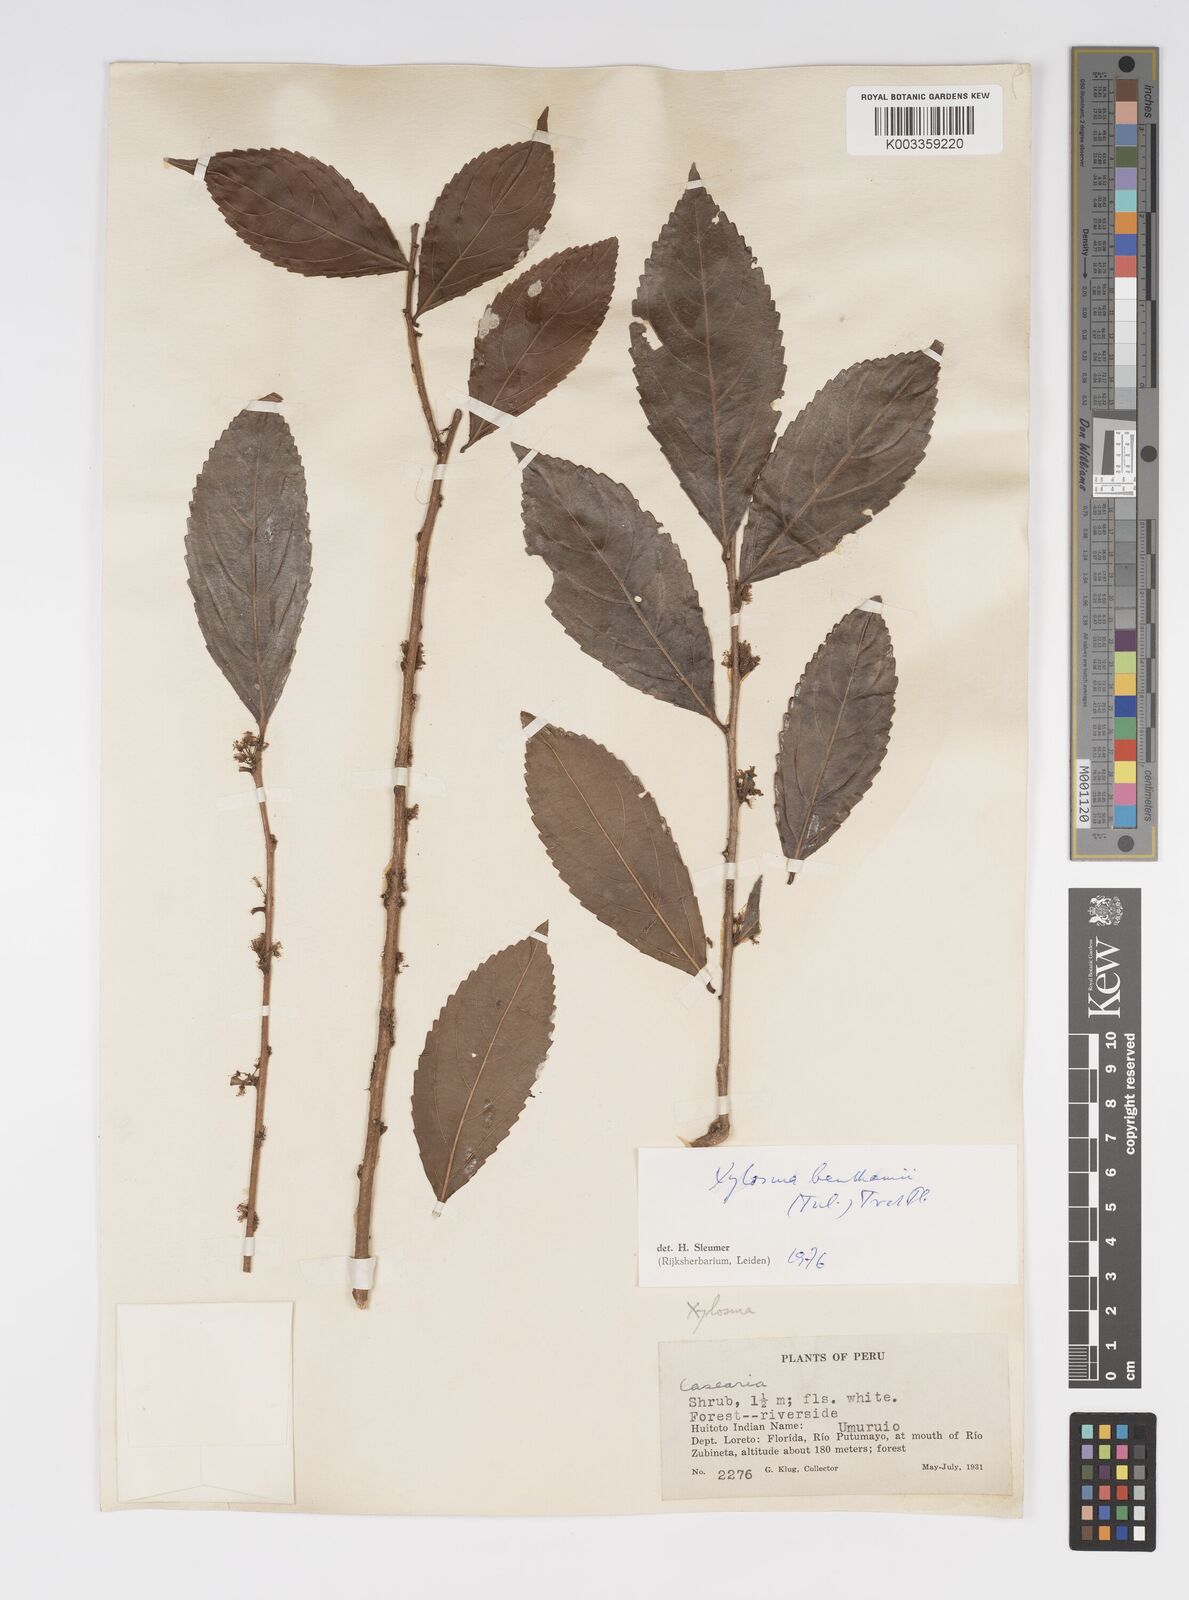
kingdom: Plantae
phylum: Tracheophyta
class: Magnoliopsida
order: Malpighiales
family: Salicaceae
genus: Xylosma
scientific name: Xylosma benthamii
